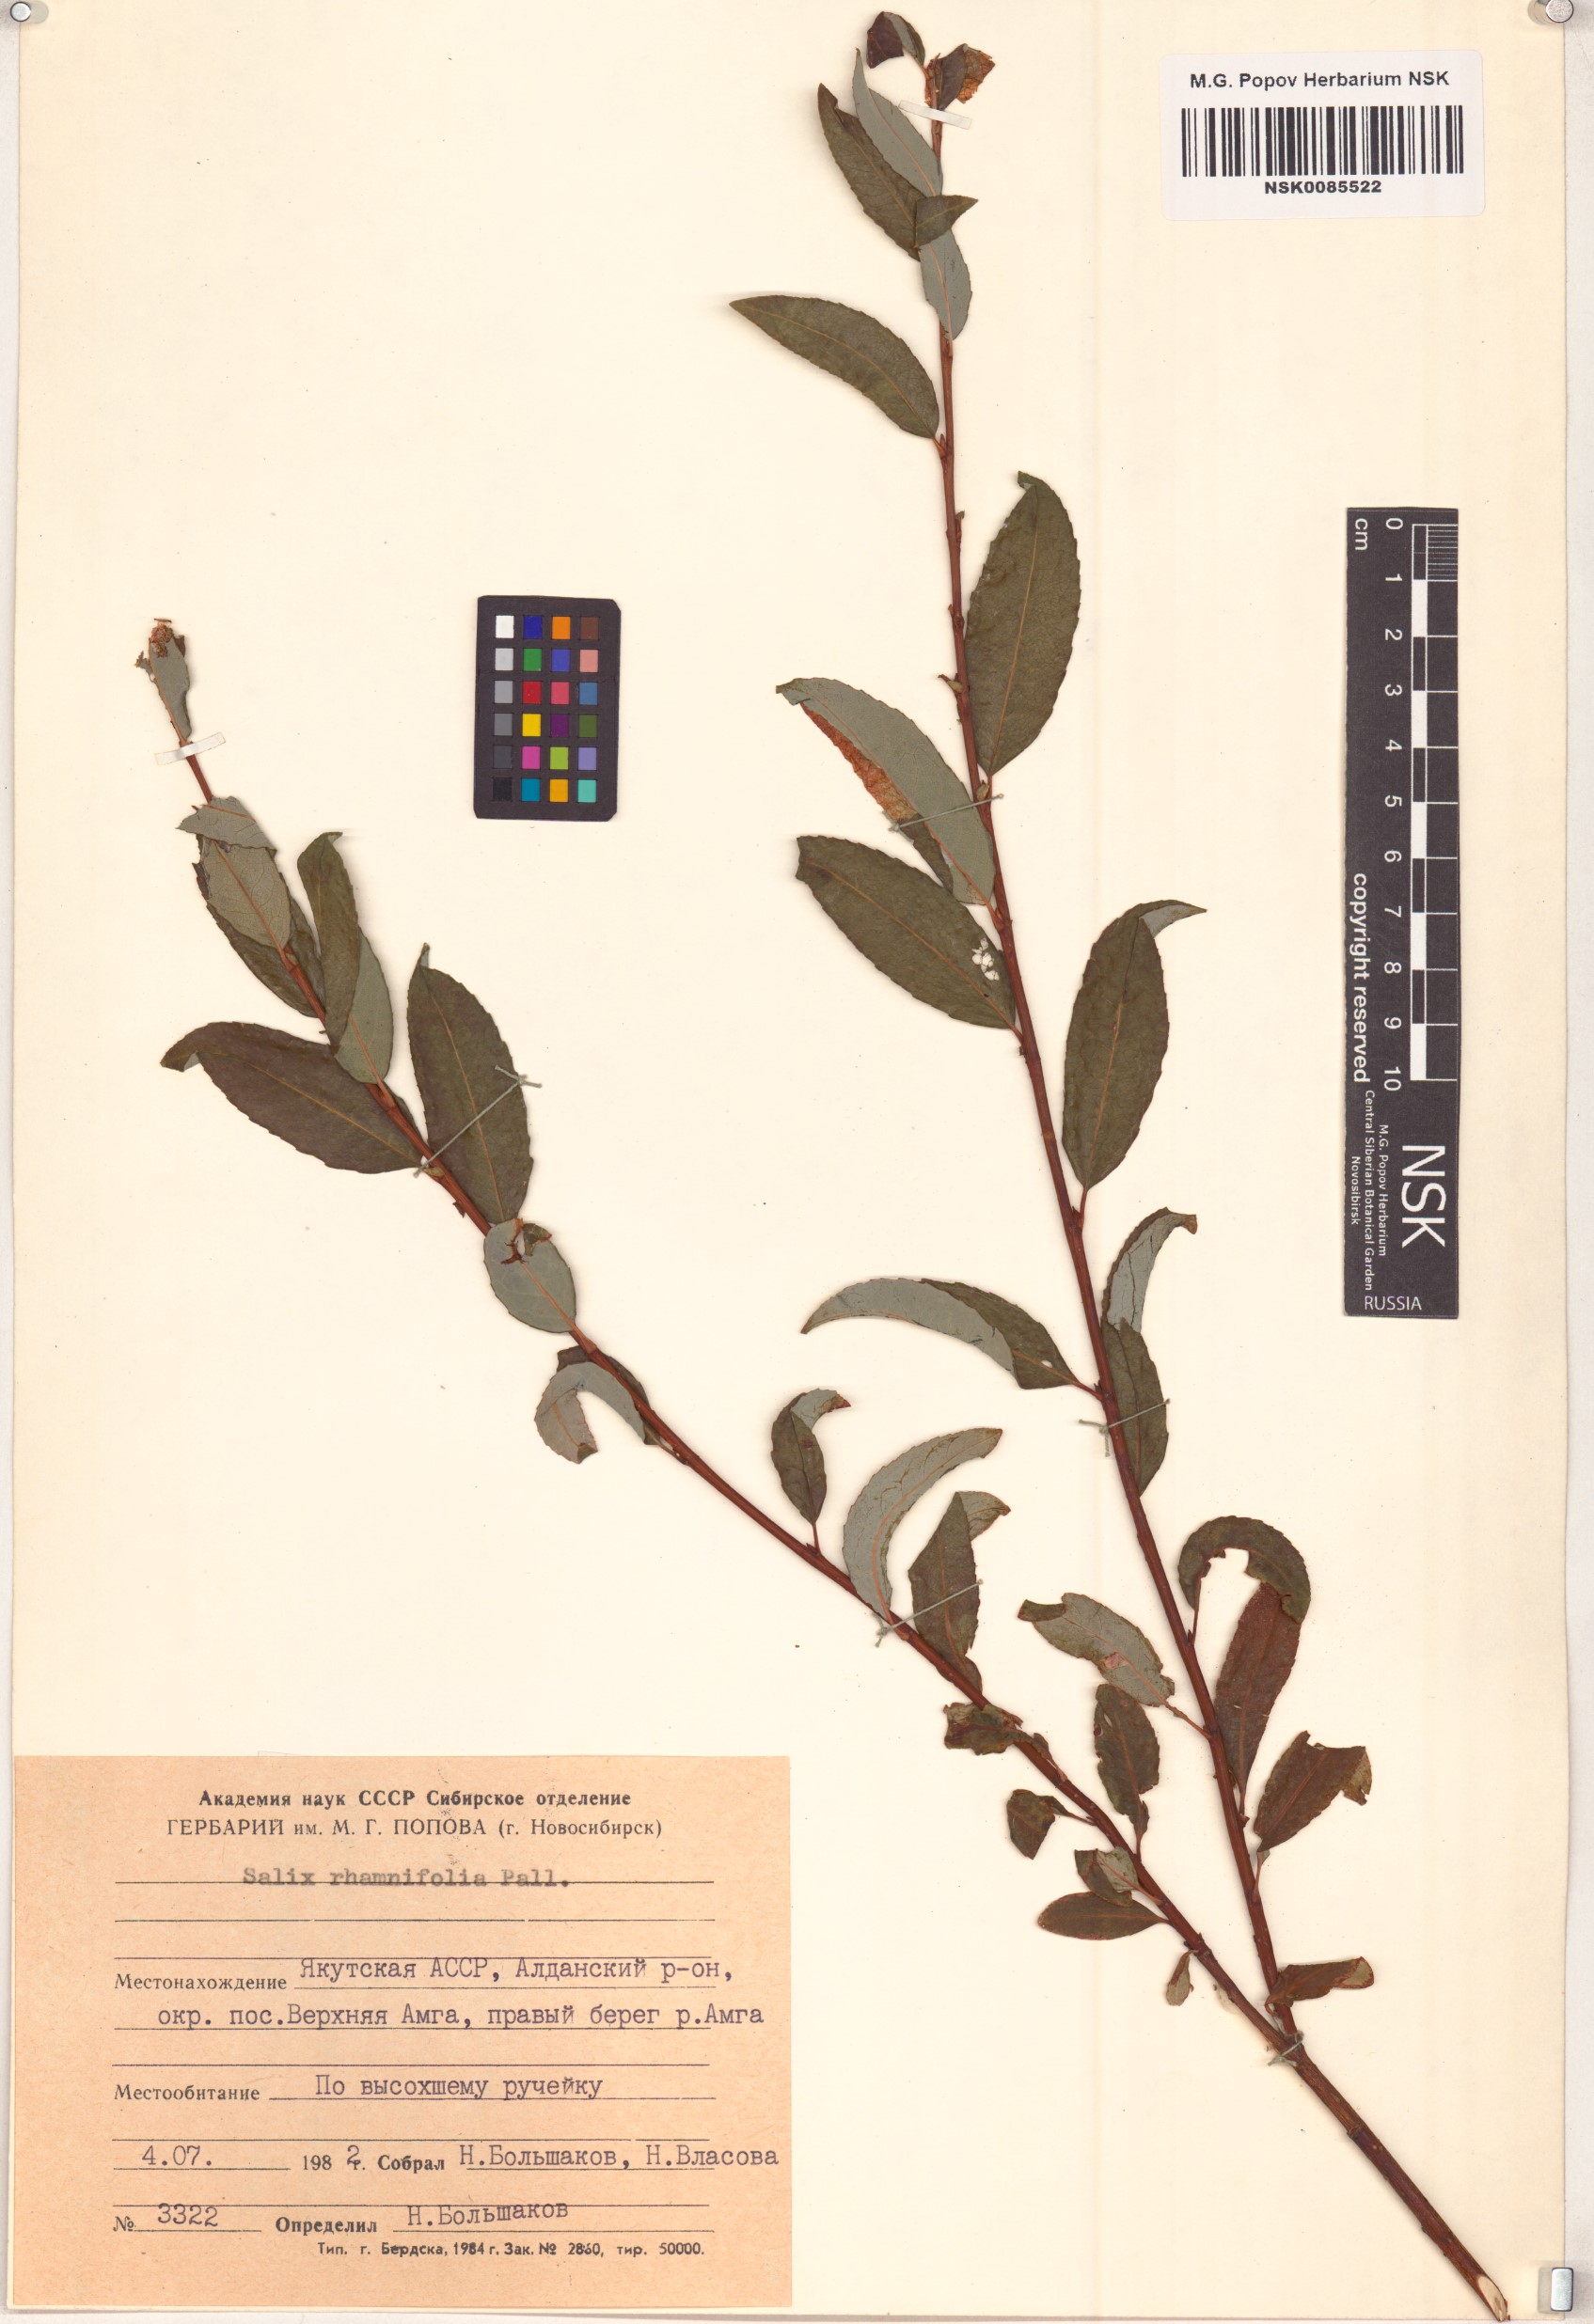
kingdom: Plantae
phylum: Tracheophyta
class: Magnoliopsida
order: Malpighiales
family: Salicaceae
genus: Salix
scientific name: Salix rhamnifolia
